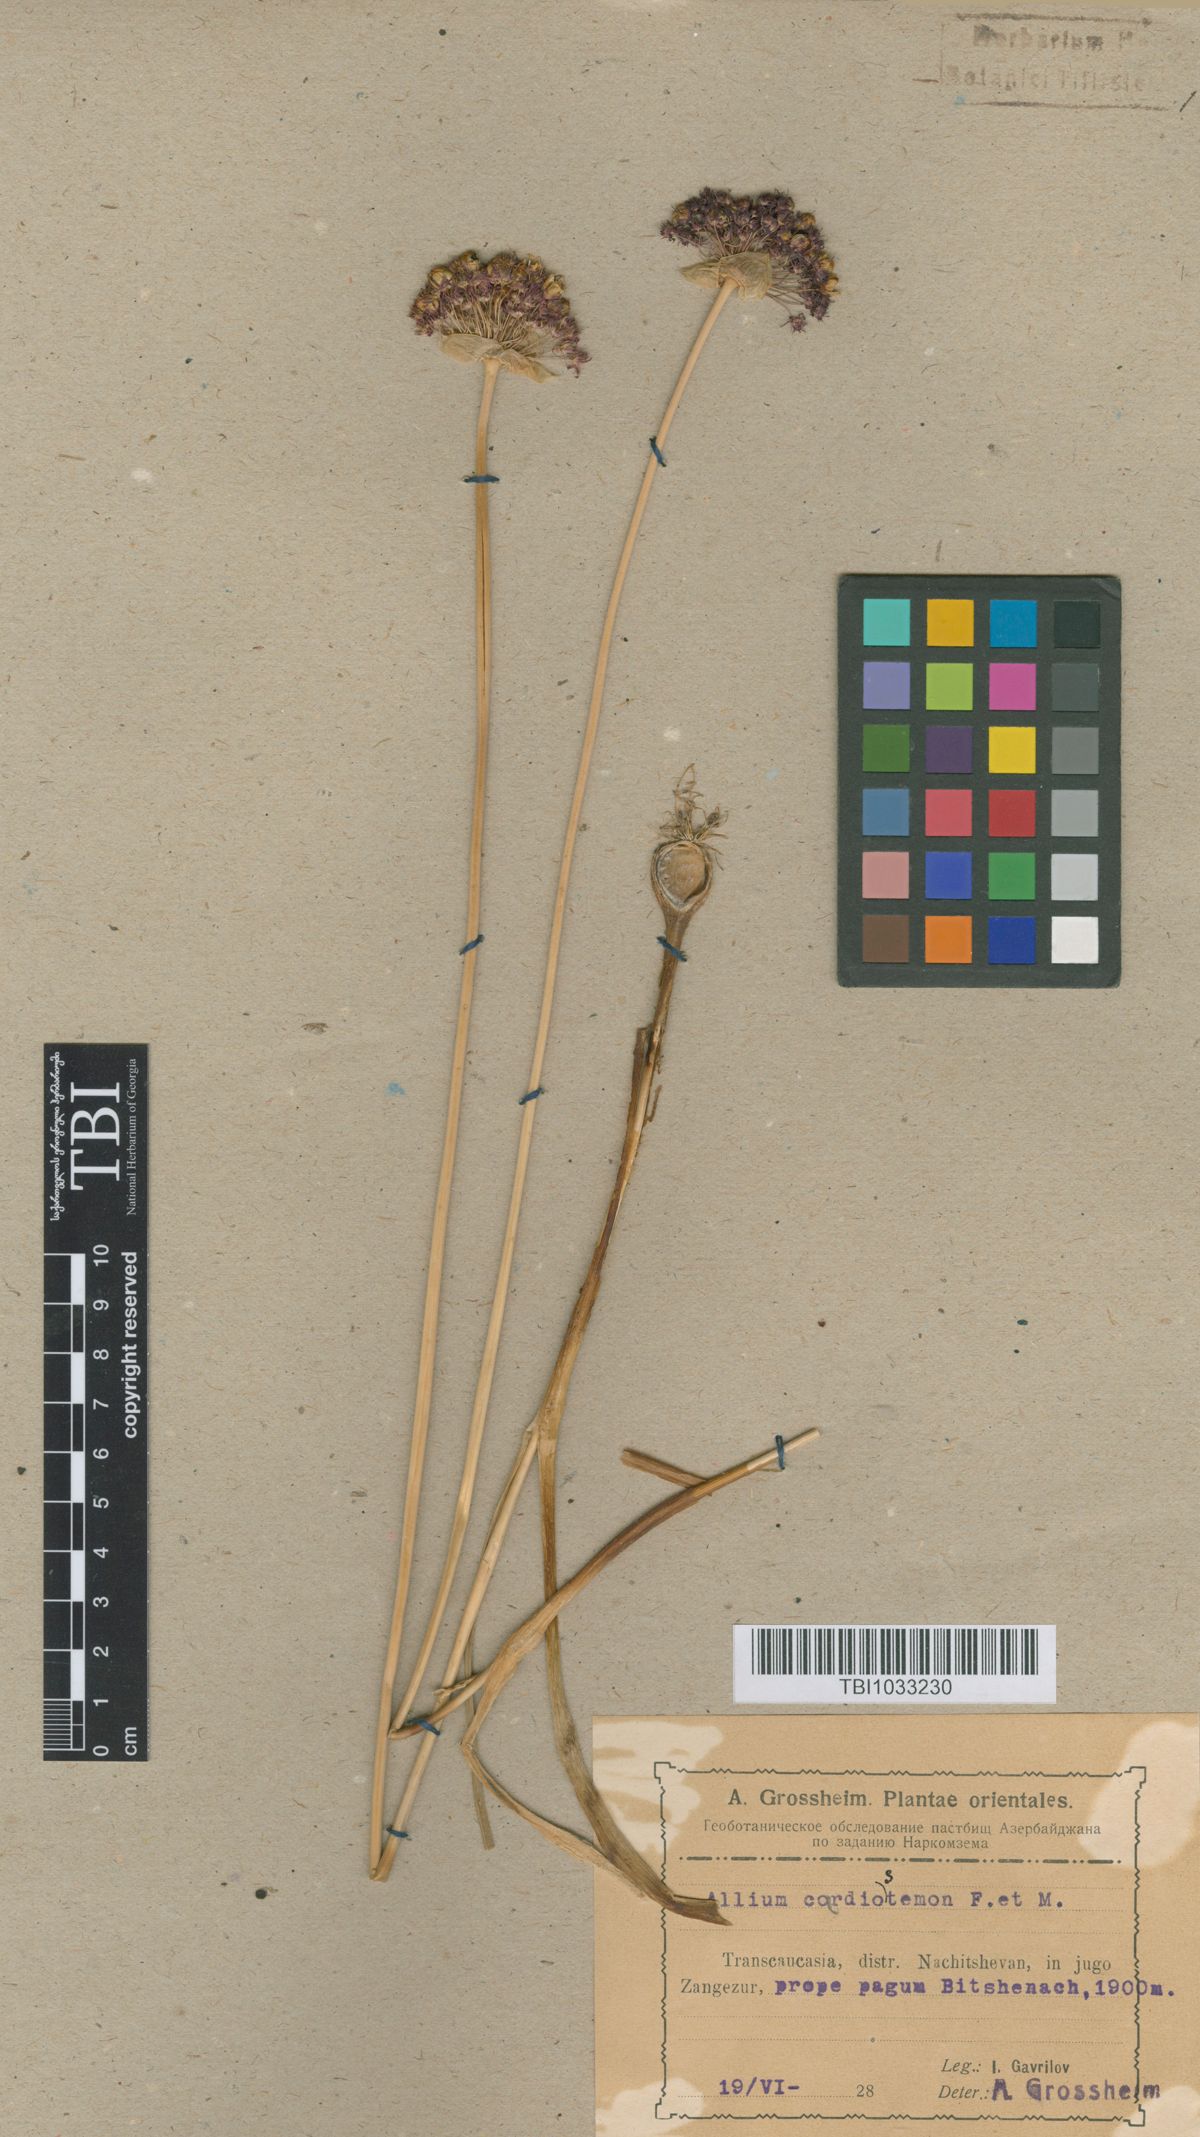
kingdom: Plantae
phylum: Tracheophyta
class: Liliopsida
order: Asparagales
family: Amaryllidaceae
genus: Allium
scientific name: Allium cardiostemon
